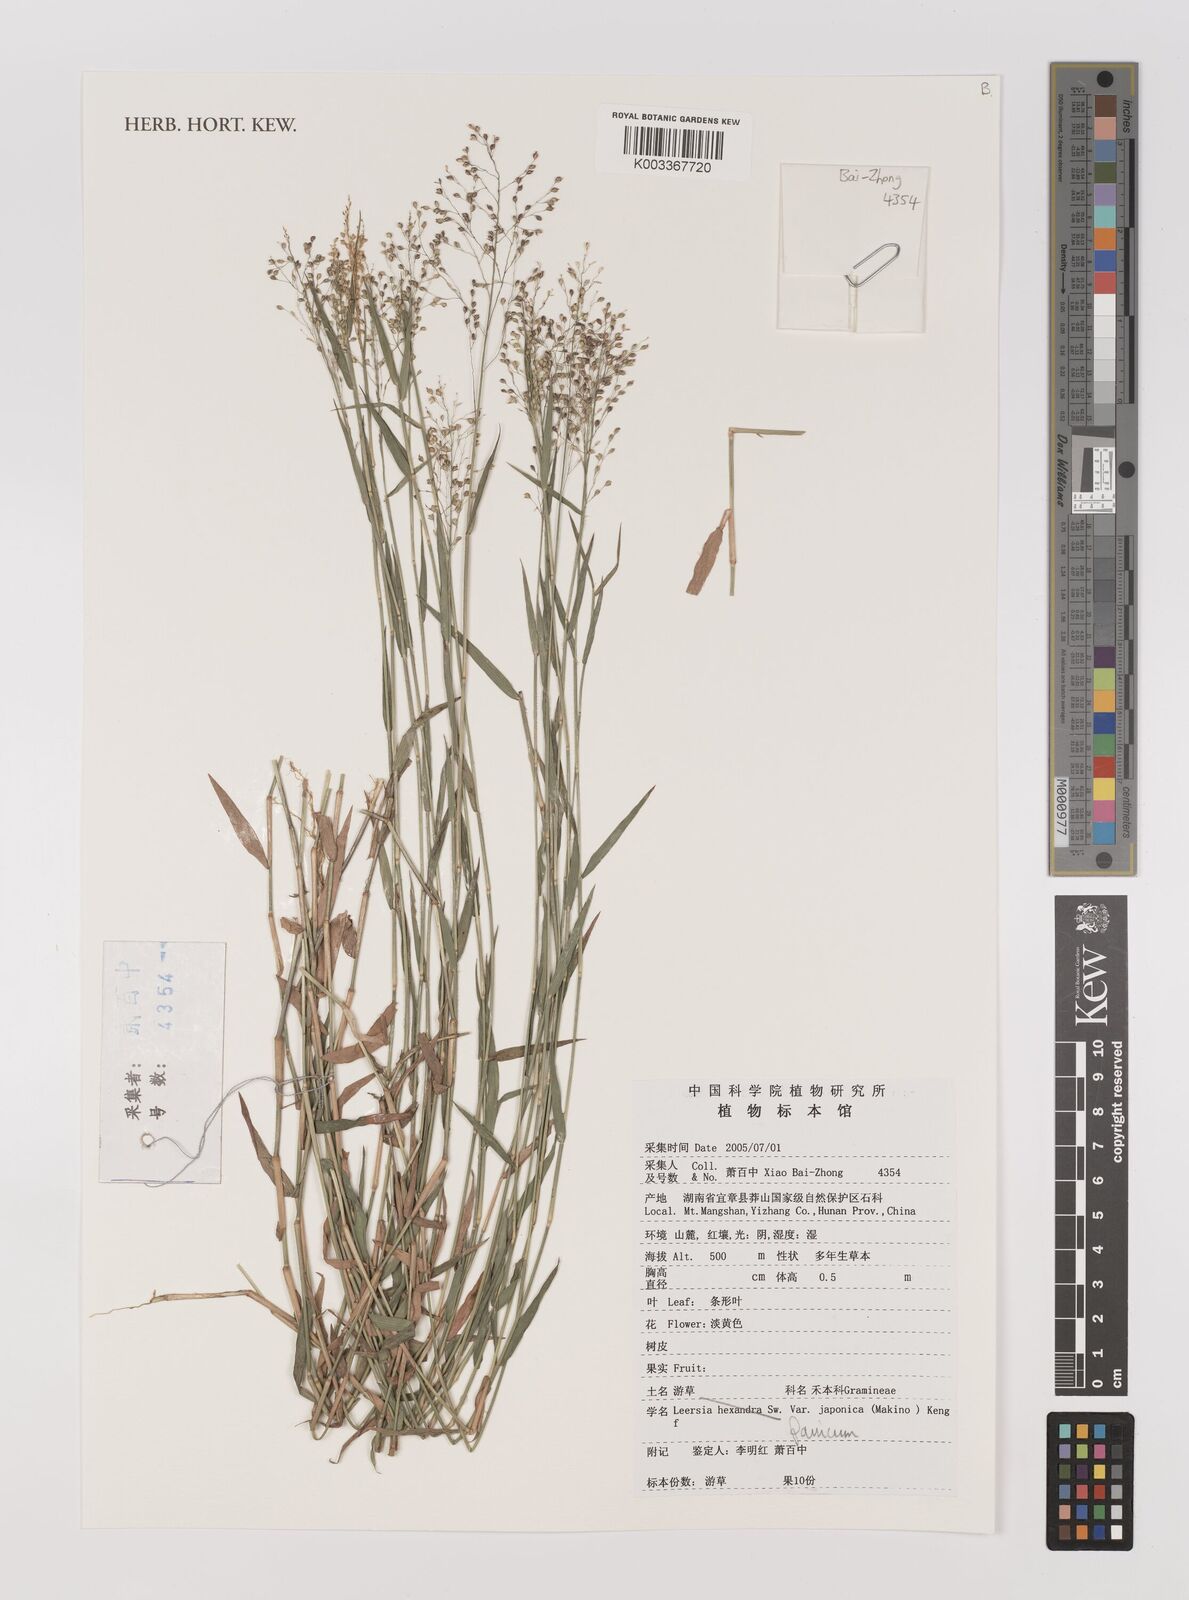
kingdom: Plantae
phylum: Tracheophyta
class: Liliopsida
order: Poales
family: Poaceae
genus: Panicum
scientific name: Panicum
